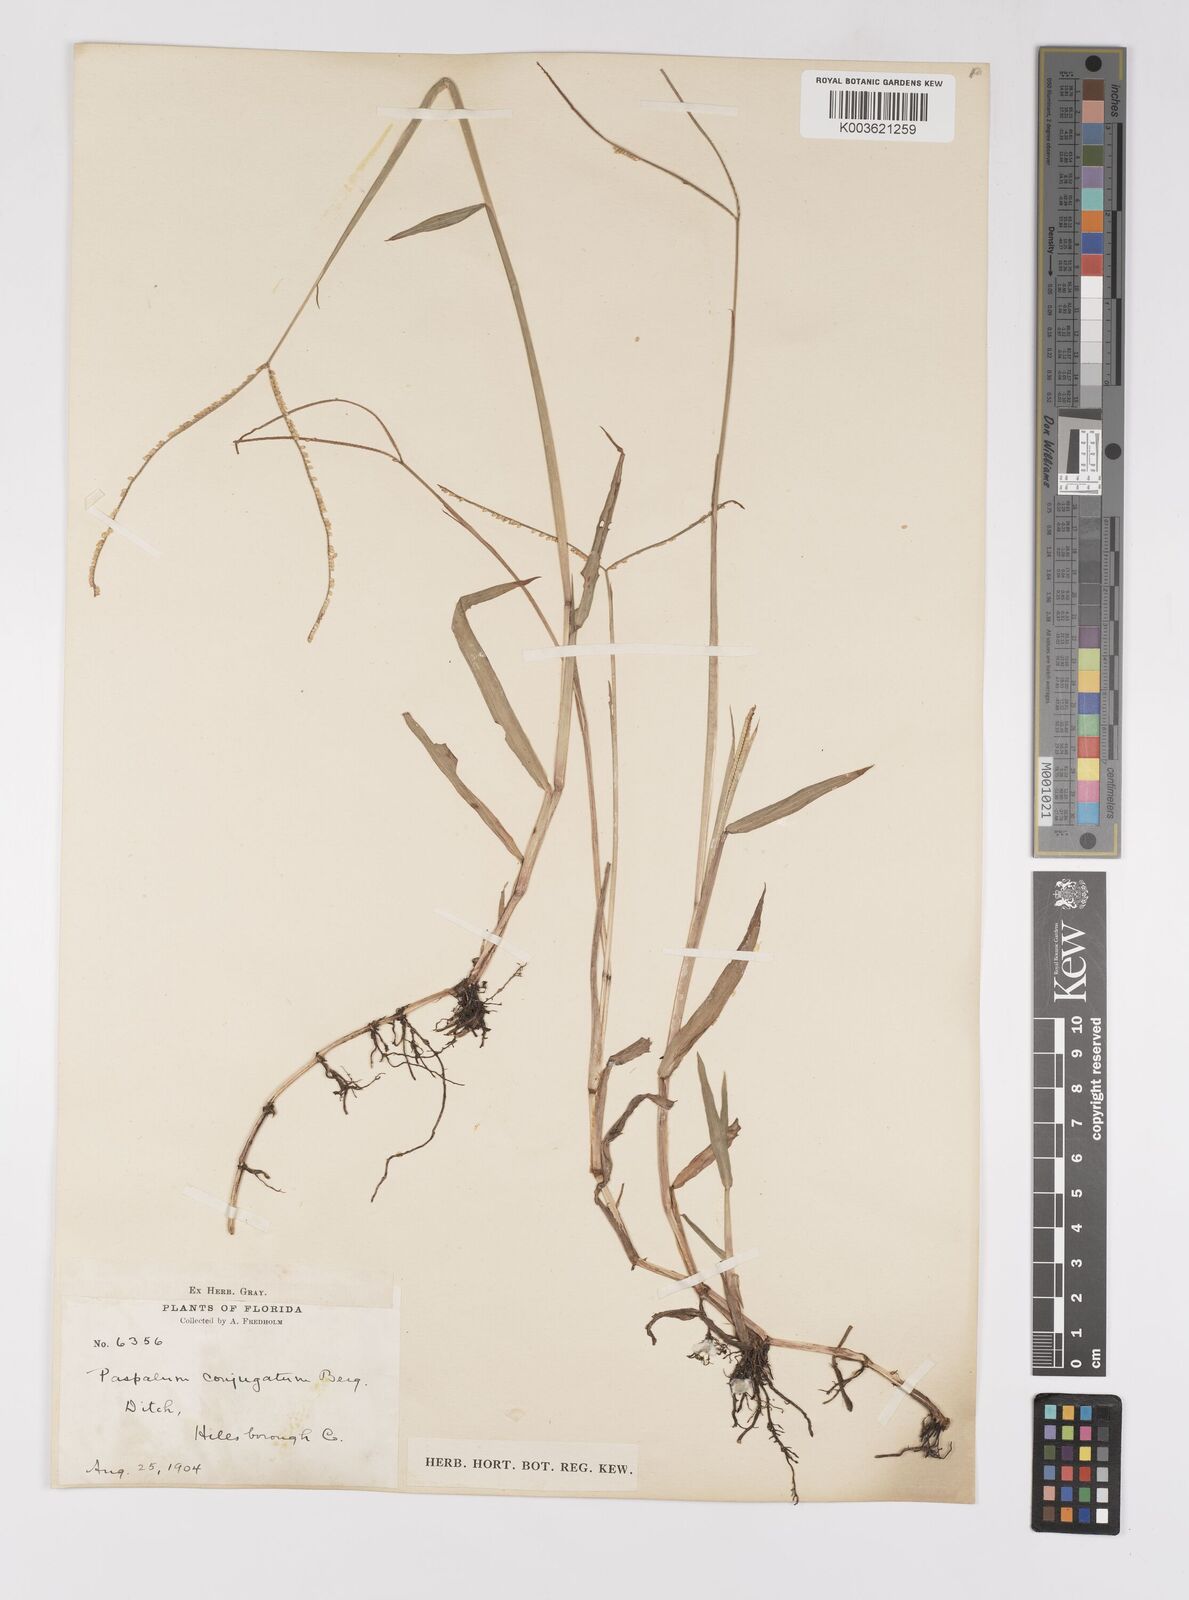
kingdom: Plantae
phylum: Tracheophyta
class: Liliopsida
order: Poales
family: Poaceae
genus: Paspalum
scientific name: Paspalum conjugatum
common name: Hilograss
